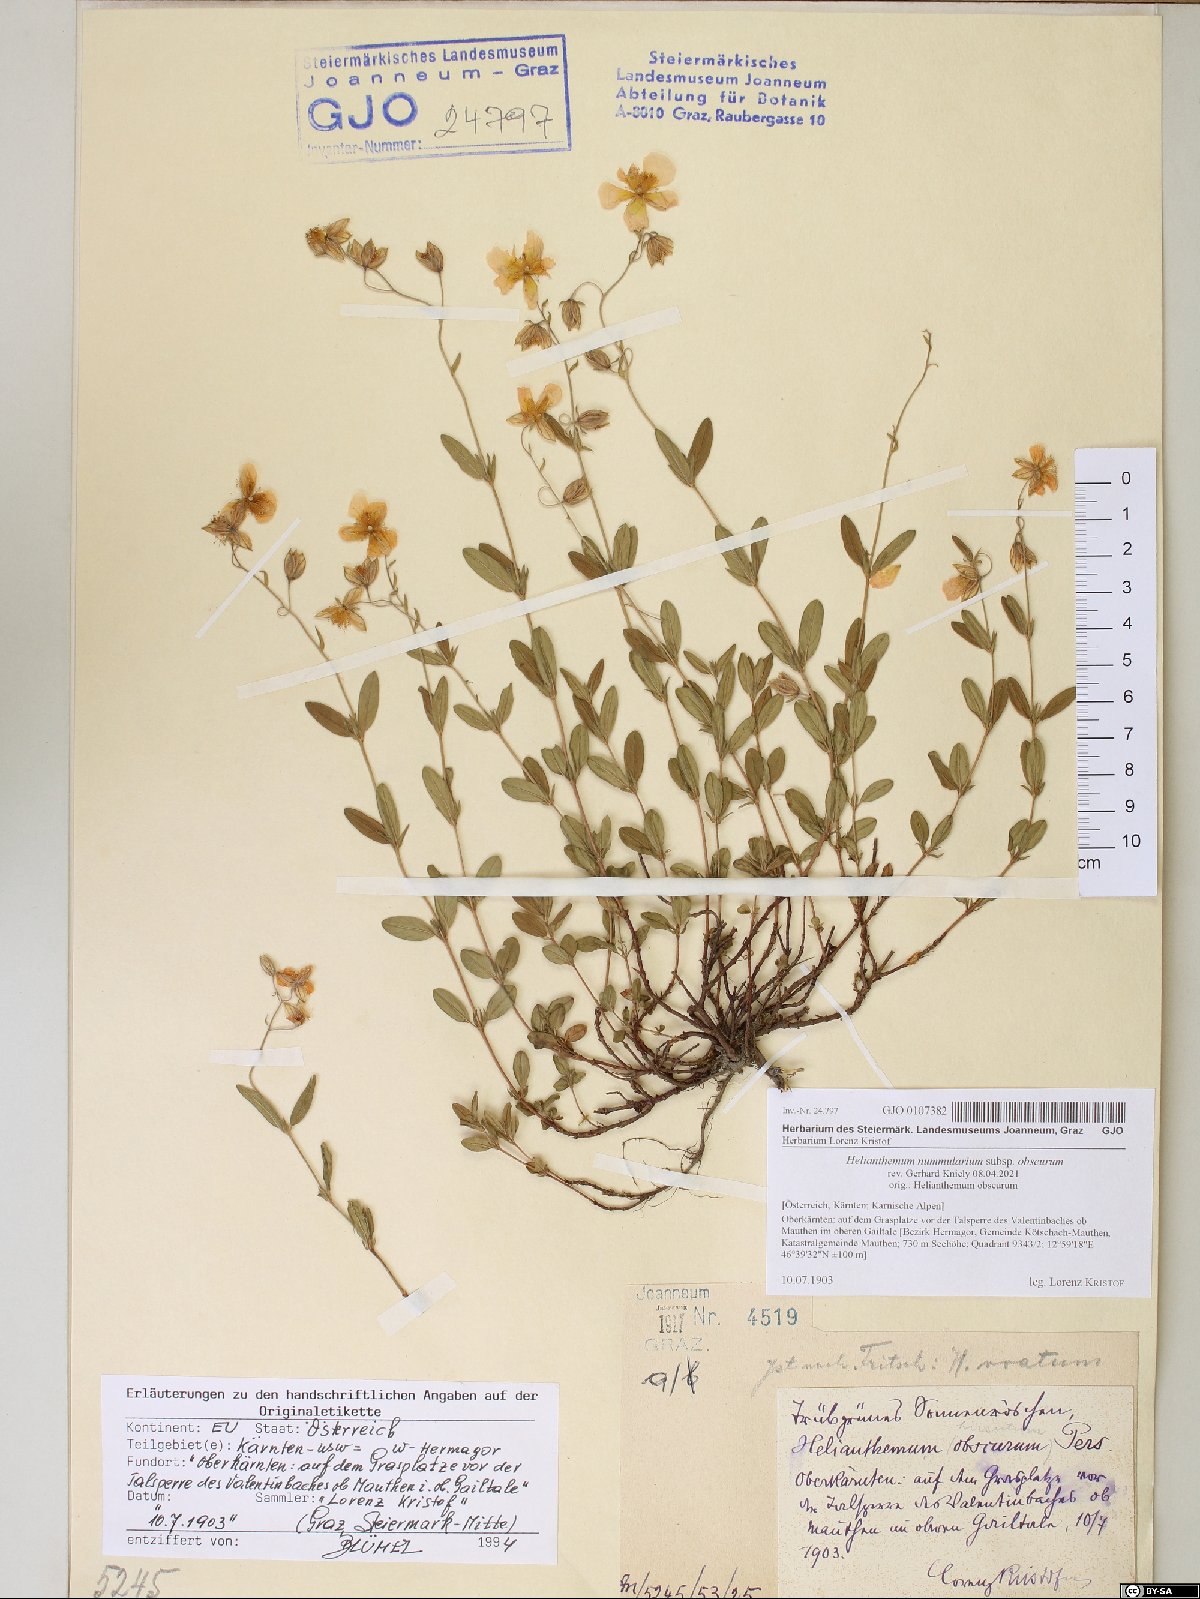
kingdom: Plantae
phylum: Tracheophyta
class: Magnoliopsida
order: Malvales
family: Cistaceae
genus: Helianthemum
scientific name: Helianthemum nummularium
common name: Common rock-rose
